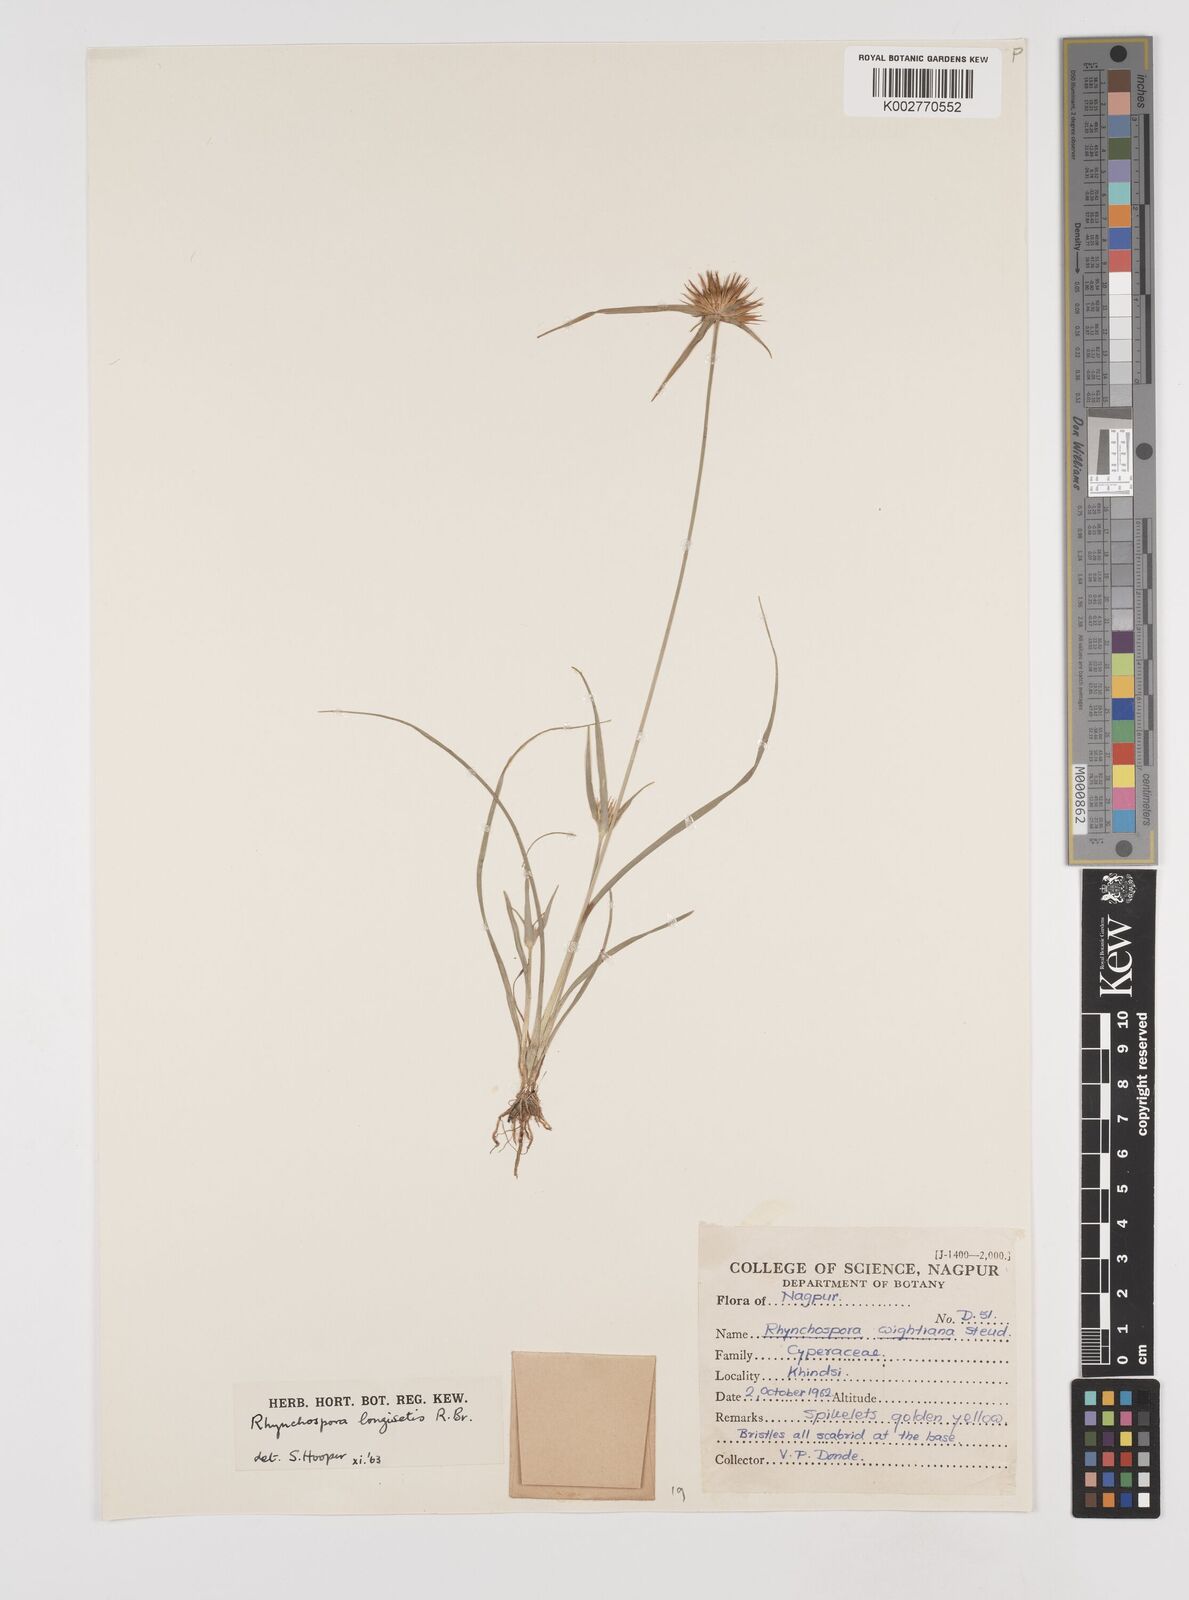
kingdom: Plantae
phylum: Tracheophyta
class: Liliopsida
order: Poales
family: Cyperaceae
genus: Rhynchospora
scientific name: Rhynchospora longisetis
